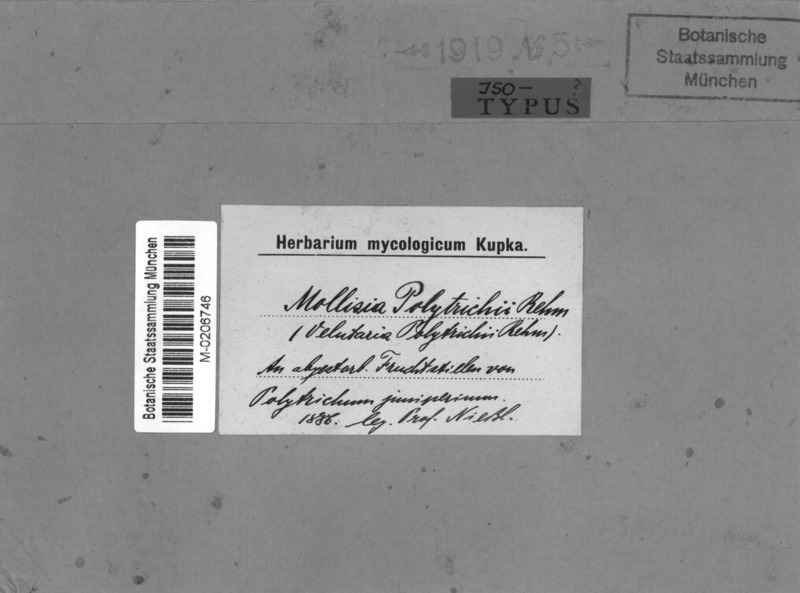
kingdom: Fungi
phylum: Ascomycota
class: Leotiomycetes
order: Helotiales
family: Pezizellaceae
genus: Velutaria
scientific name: Velutaria polytrichi
